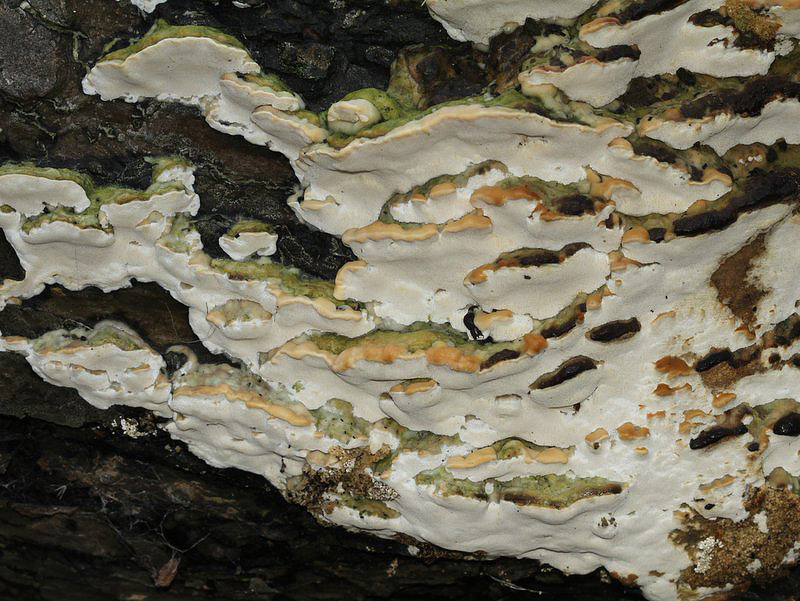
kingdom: Fungi
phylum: Basidiomycota
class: Agaricomycetes
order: Hymenochaetales
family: Oxyporaceae
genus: Oxyporus
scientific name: Oxyporus populinus
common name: sammenvokset trylleporesvamp
